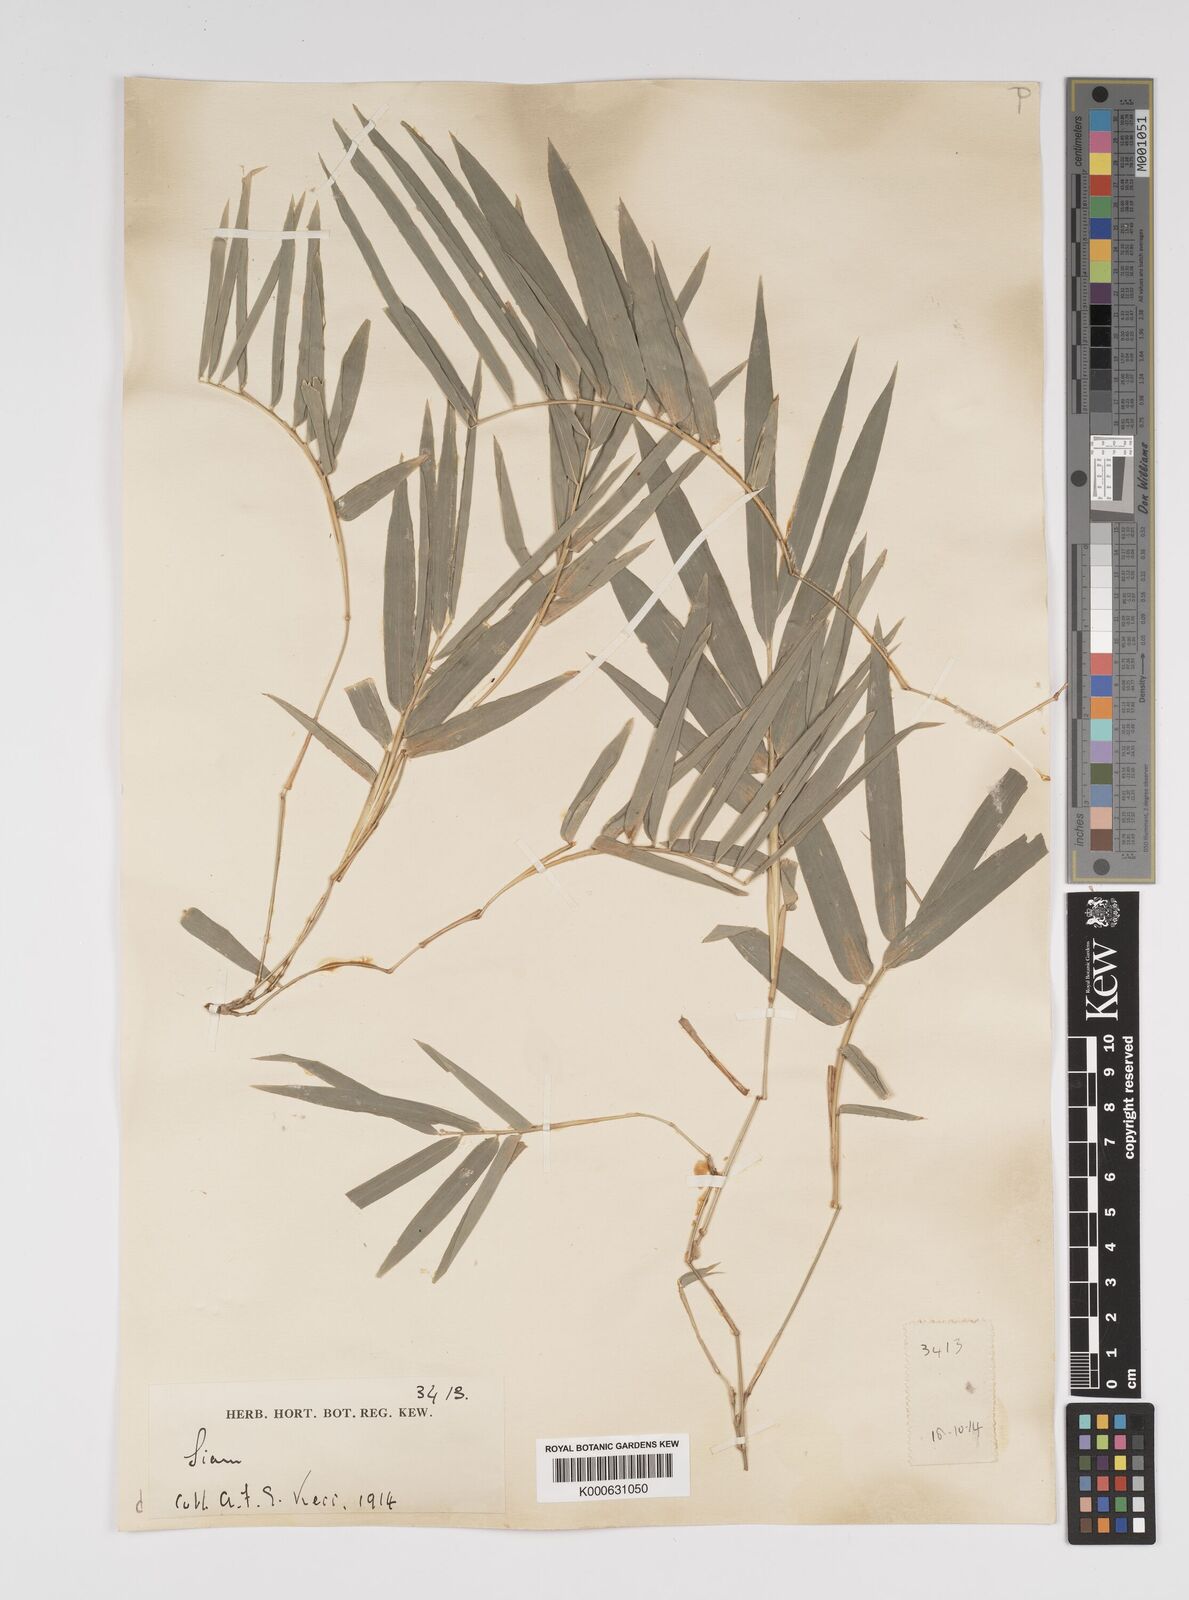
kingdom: Plantae
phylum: Tracheophyta
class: Liliopsida
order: Poales
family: Poaceae
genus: Bambusa
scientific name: Bambusa
